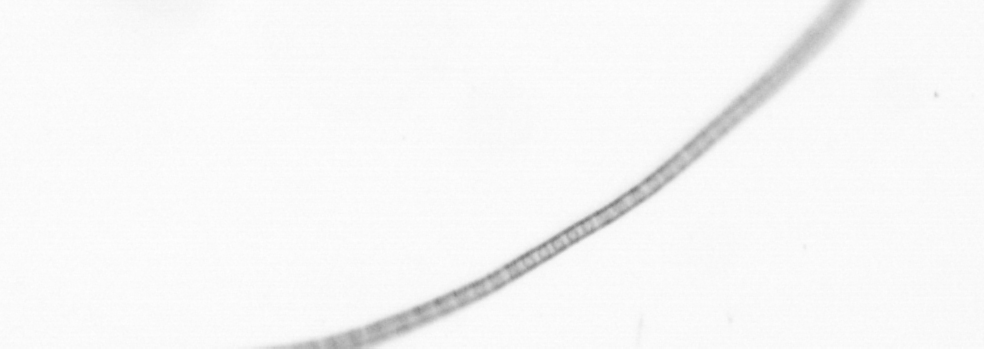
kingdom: Chromista
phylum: Ochrophyta
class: Bacillariophyceae
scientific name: Bacillariophyceae
